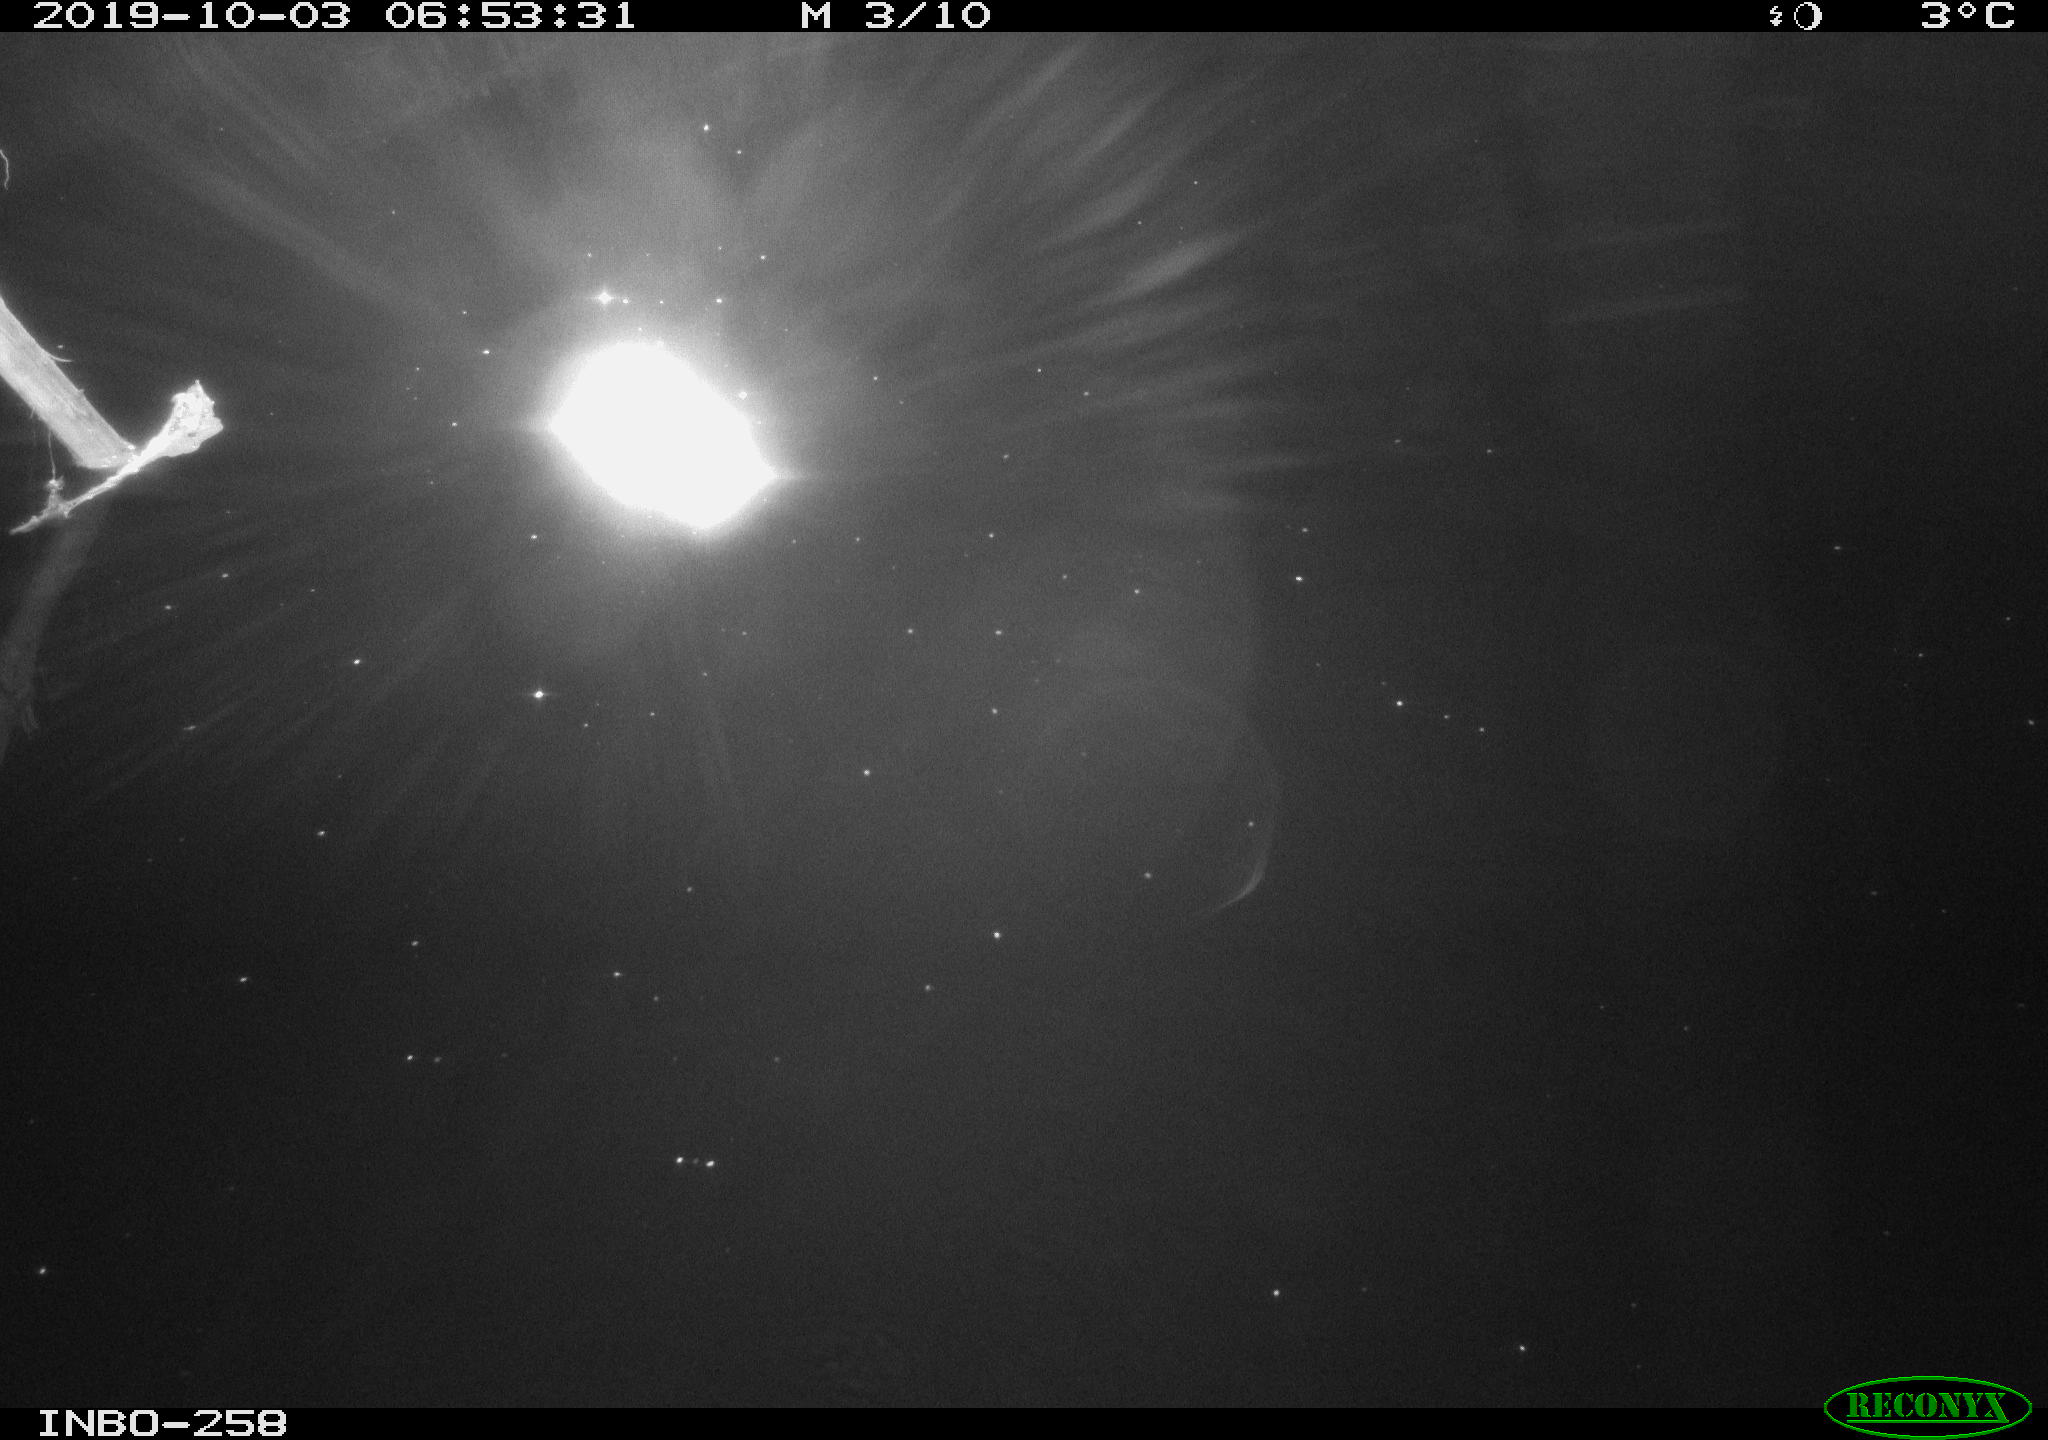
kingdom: Animalia
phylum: Chordata
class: Aves
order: Anseriformes
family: Anatidae
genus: Anas
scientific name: Anas platyrhynchos
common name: Mallard
